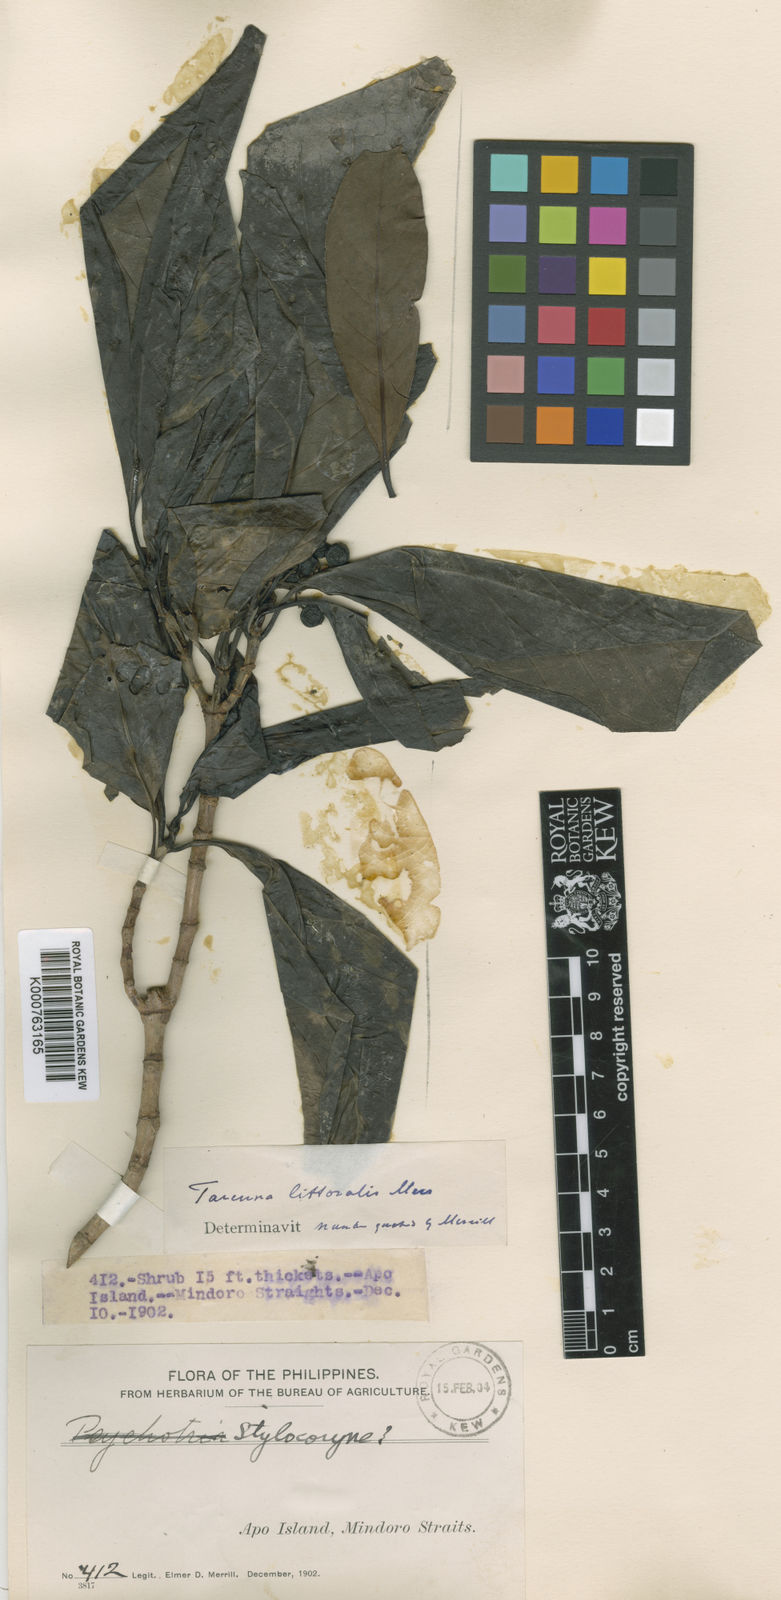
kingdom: Plantae
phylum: Tracheophyta
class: Magnoliopsida
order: Gentianales
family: Rubiaceae
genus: Tarenna
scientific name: Tarenna littoralis
